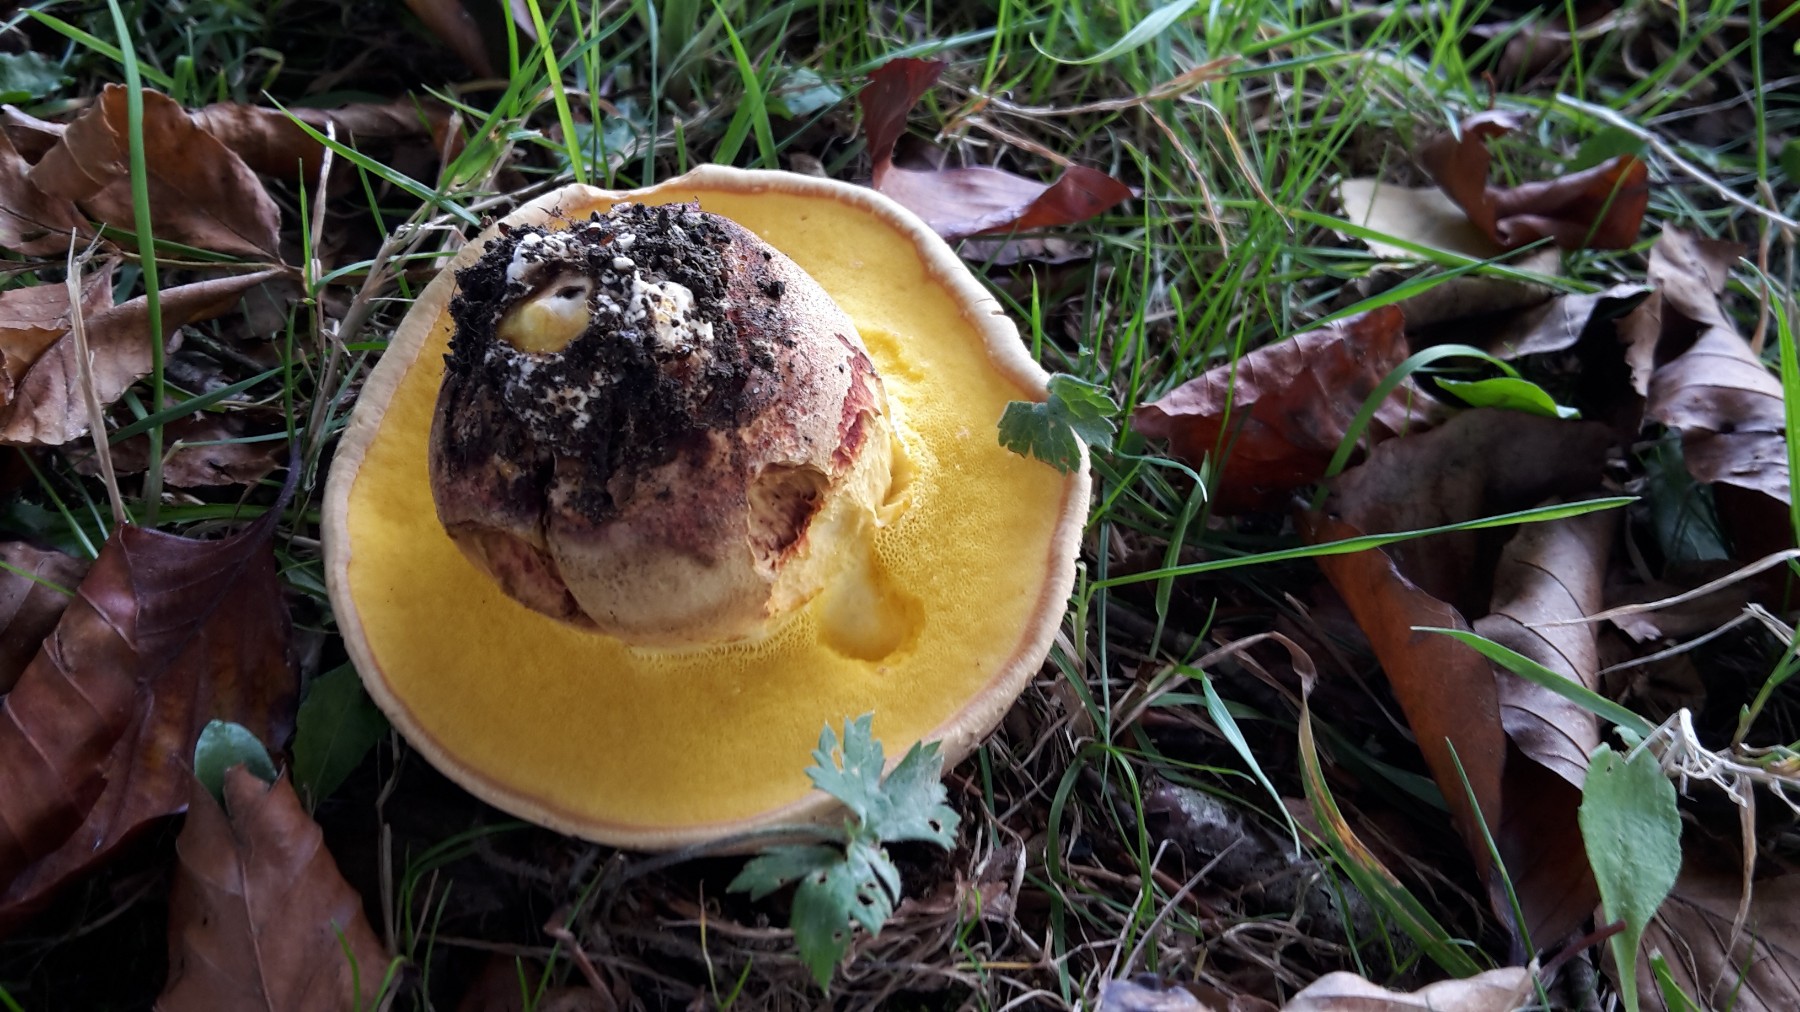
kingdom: Fungi
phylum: Basidiomycota
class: Agaricomycetes
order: Boletales
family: Boletaceae
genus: Caloboletus
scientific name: Caloboletus radicans
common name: rod-rørhat
